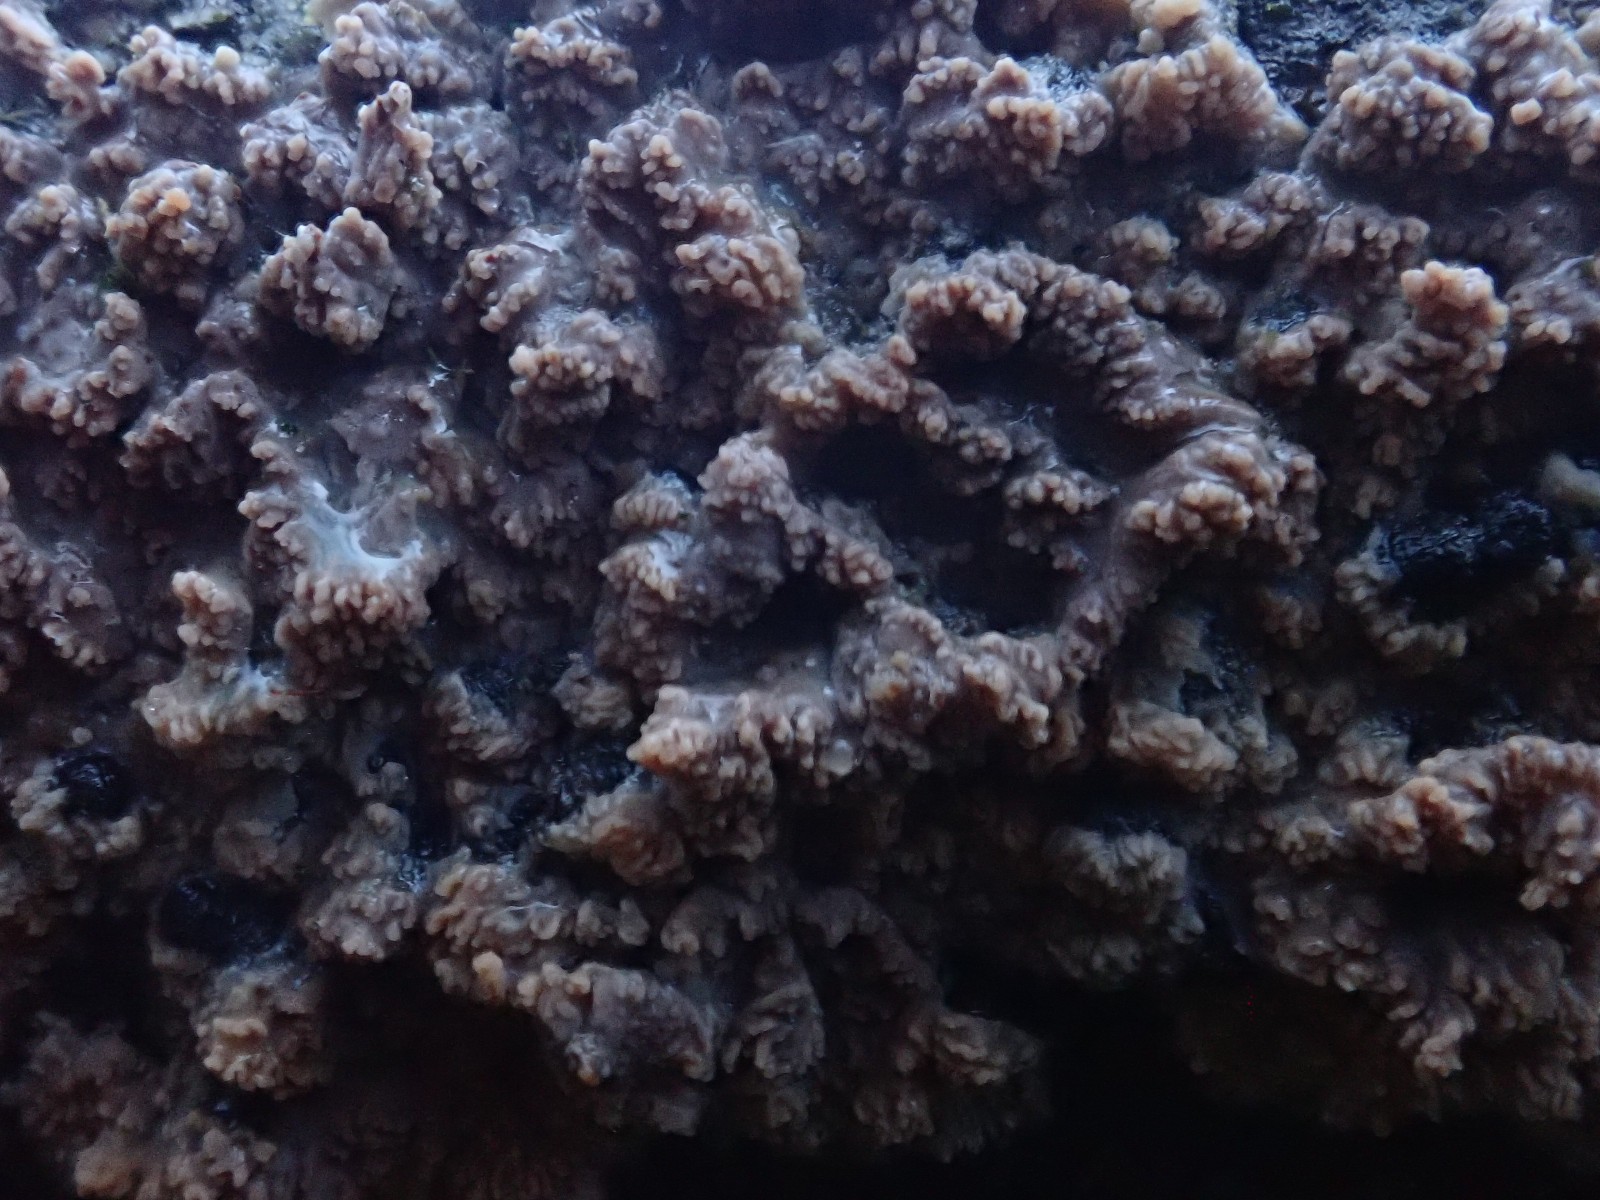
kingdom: Fungi
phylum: Basidiomycota
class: Agaricomycetes
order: Polyporales
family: Meruliaceae
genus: Phlebia
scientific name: Phlebia radiata
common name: stråle-åresvamp
